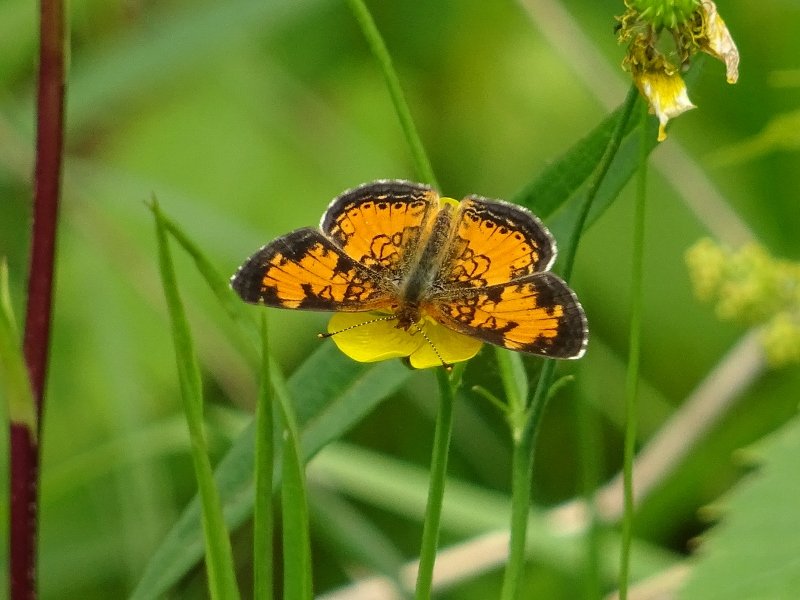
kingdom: Animalia
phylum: Arthropoda
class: Insecta
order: Lepidoptera
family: Nymphalidae
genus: Phyciodes
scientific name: Phyciodes tharos
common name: Northern Crescent
